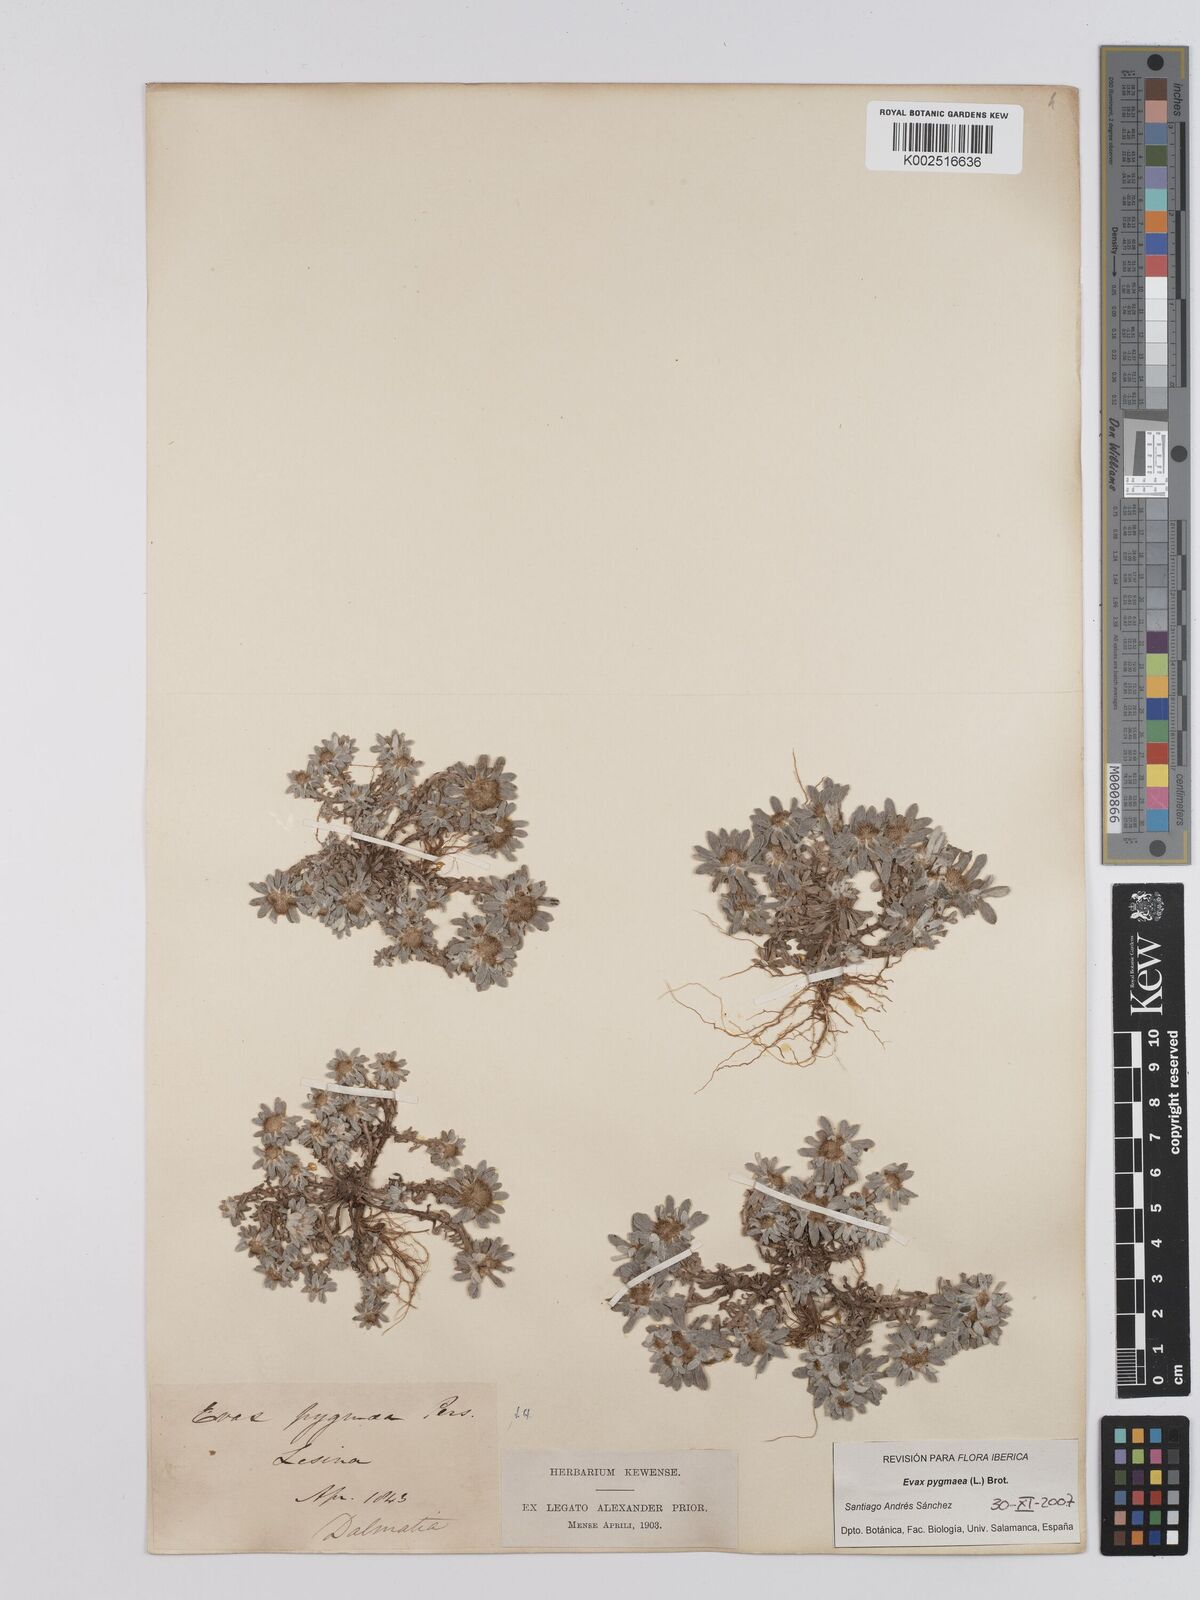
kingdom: Plantae
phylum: Tracheophyta
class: Magnoliopsida
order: Asterales
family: Asteraceae
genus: Filago
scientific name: Filago pygmaea
